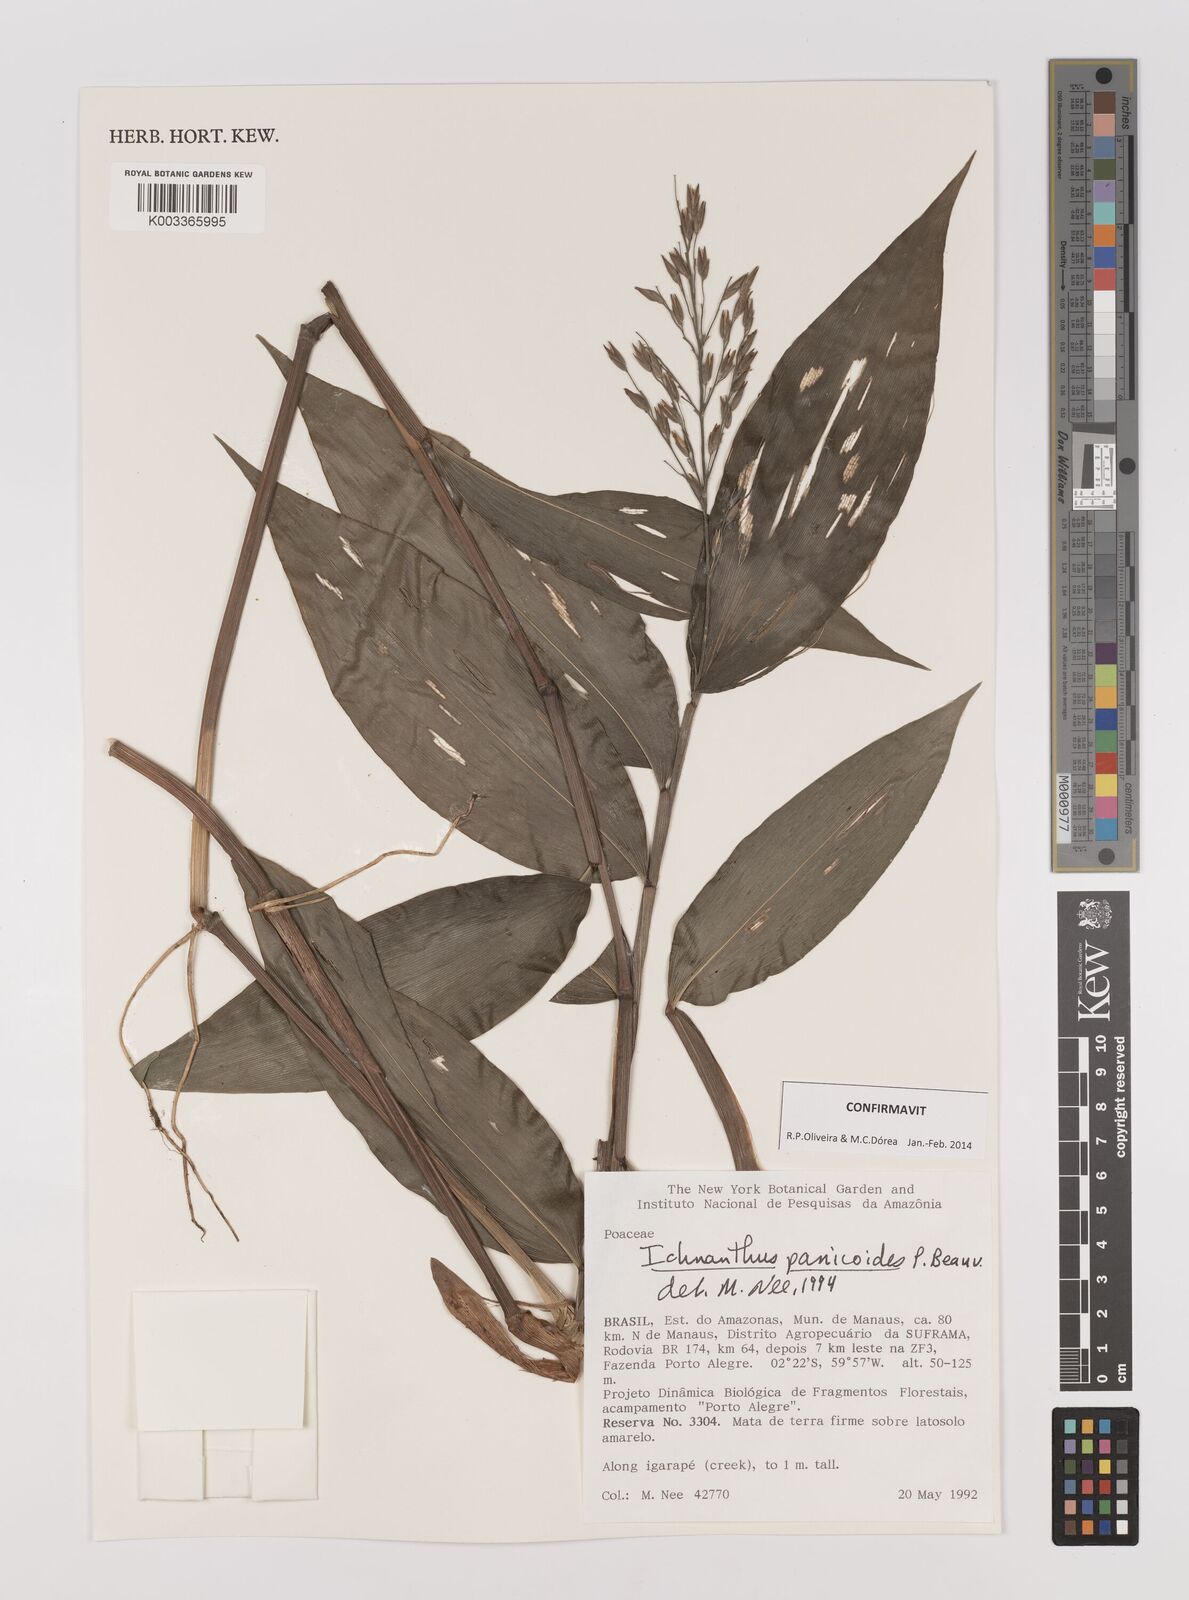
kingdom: Plantae
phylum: Tracheophyta
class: Liliopsida
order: Poales
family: Poaceae
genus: Ichnanthus
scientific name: Ichnanthus panicoides
